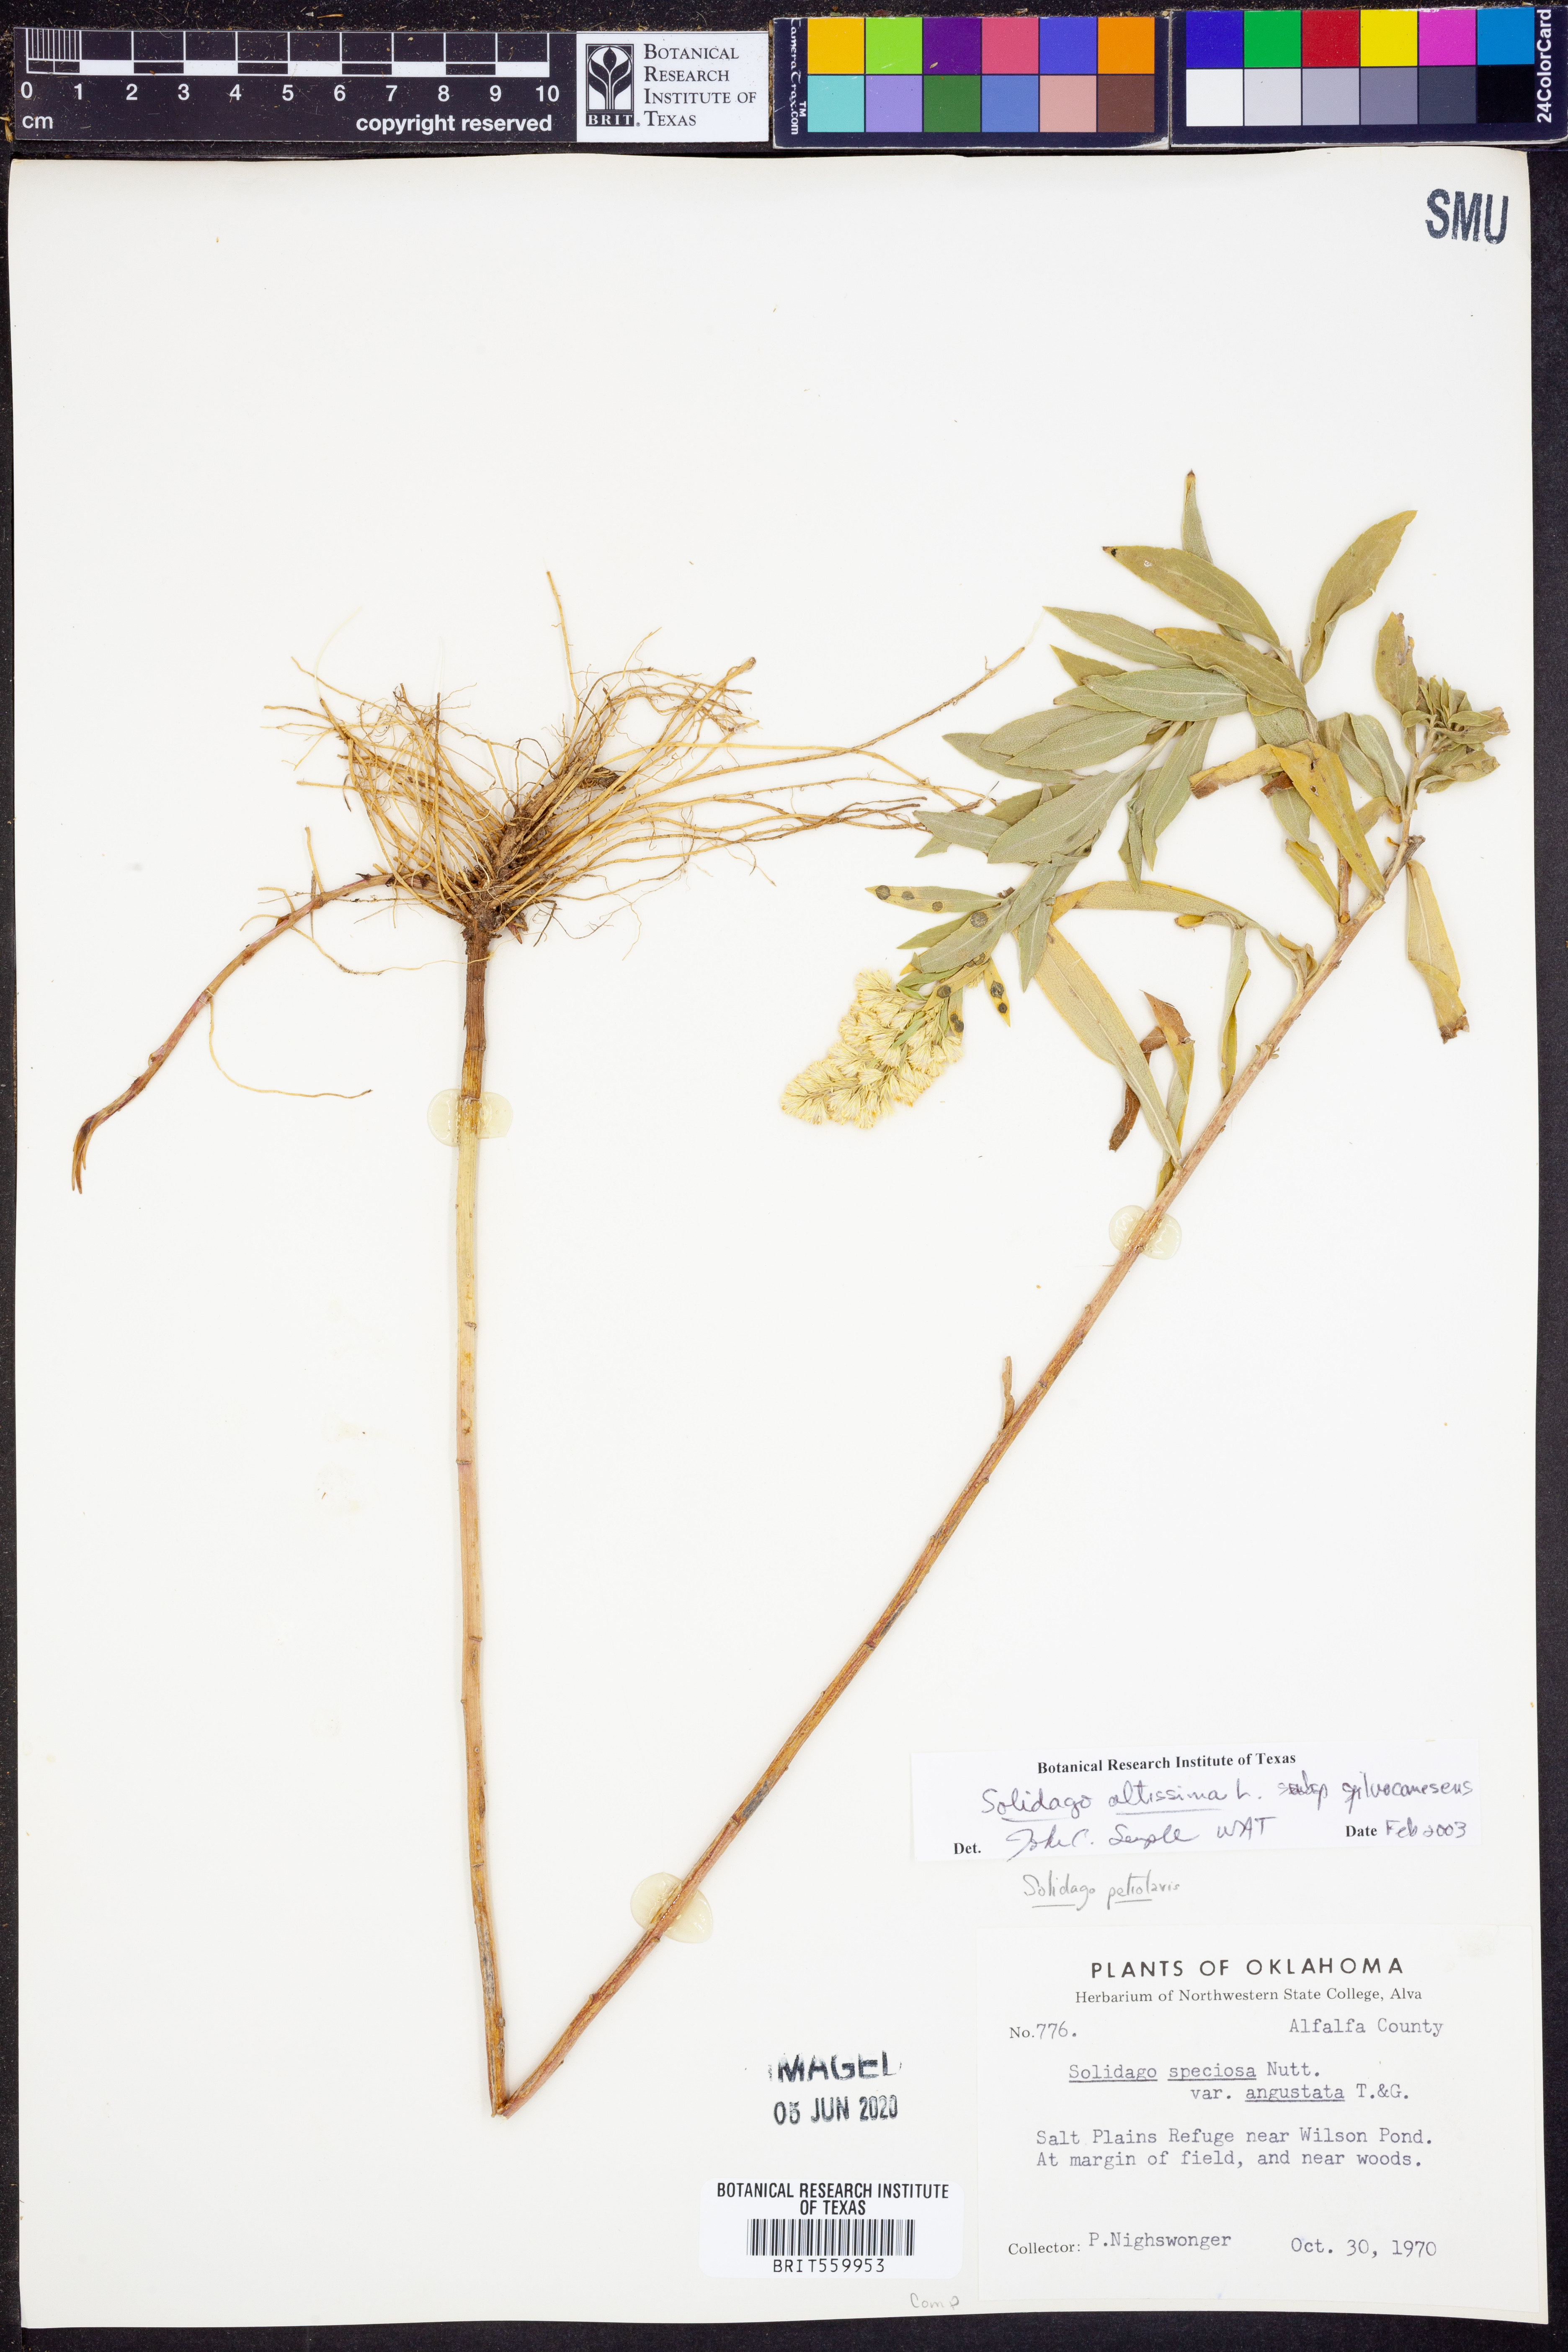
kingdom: Plantae
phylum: Tracheophyta
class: Magnoliopsida
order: Asterales
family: Asteraceae
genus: Solidago
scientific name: Solidago altissima
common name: Late goldenrod
